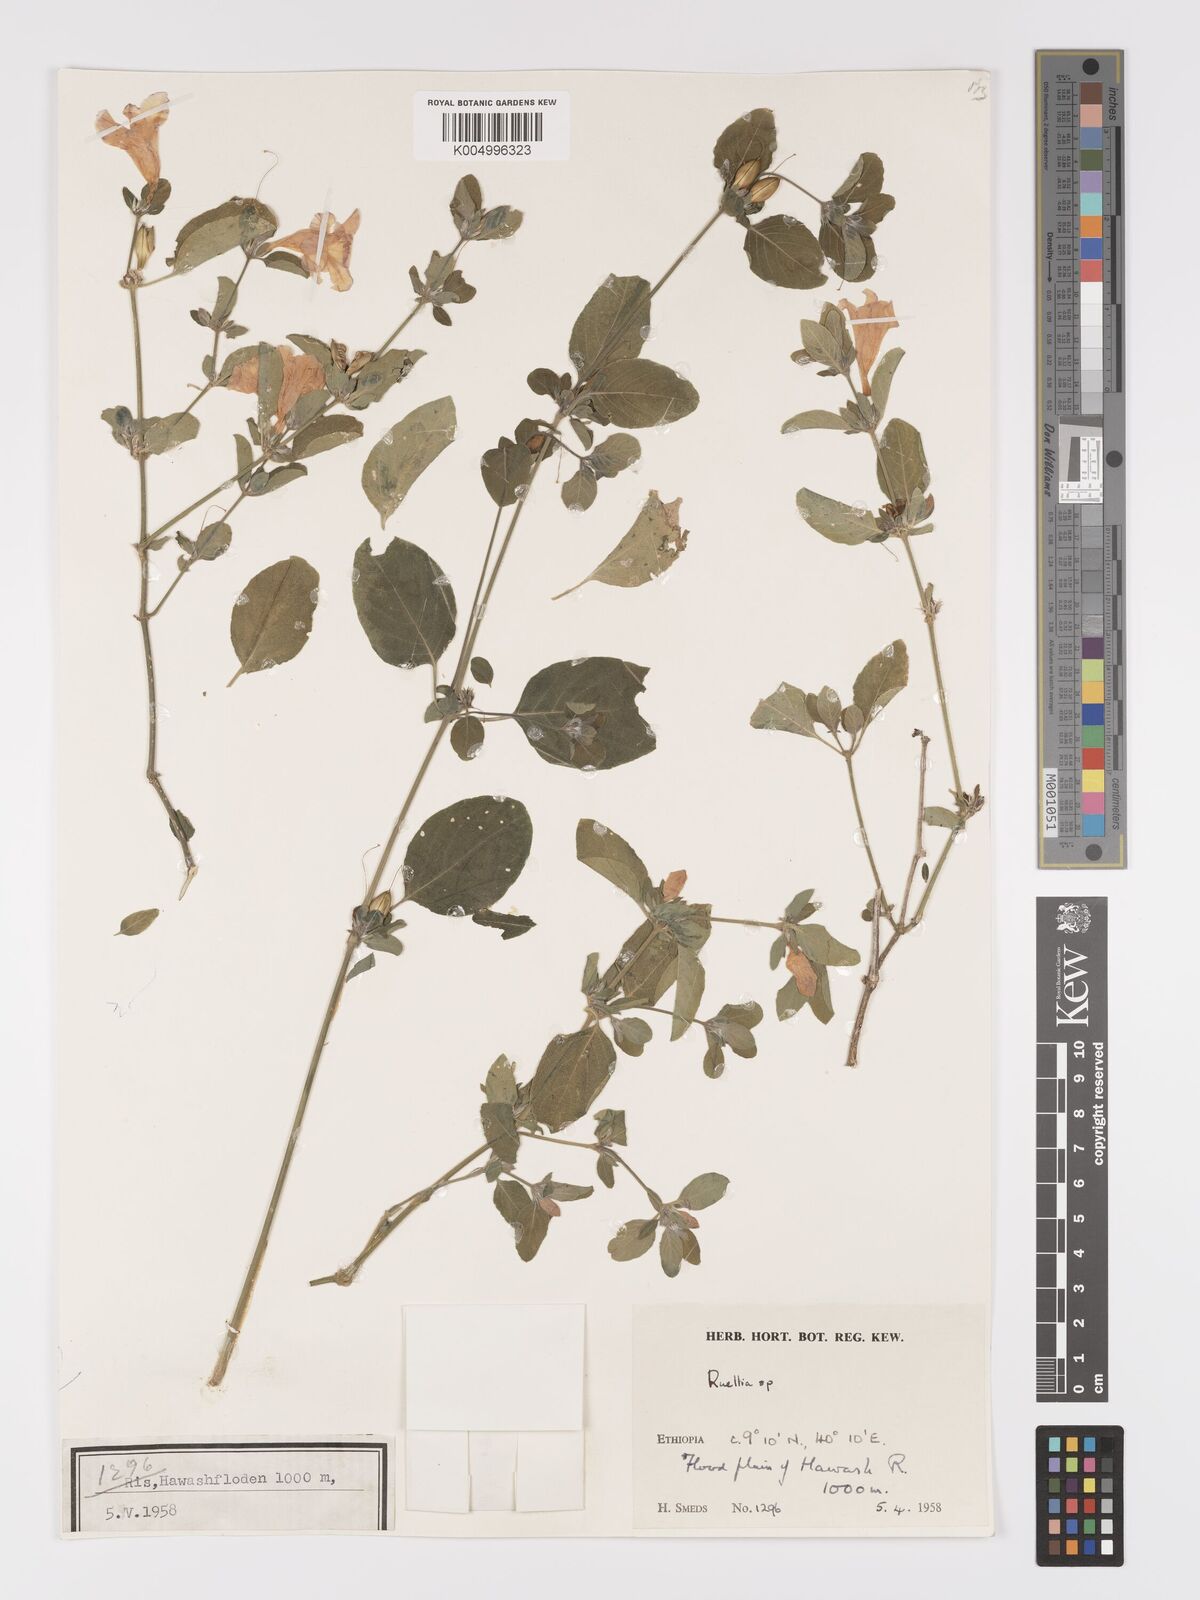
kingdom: Plantae
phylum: Tracheophyta
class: Magnoliopsida
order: Lamiales
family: Acanthaceae
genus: Ruellia
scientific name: Ruellia patula
